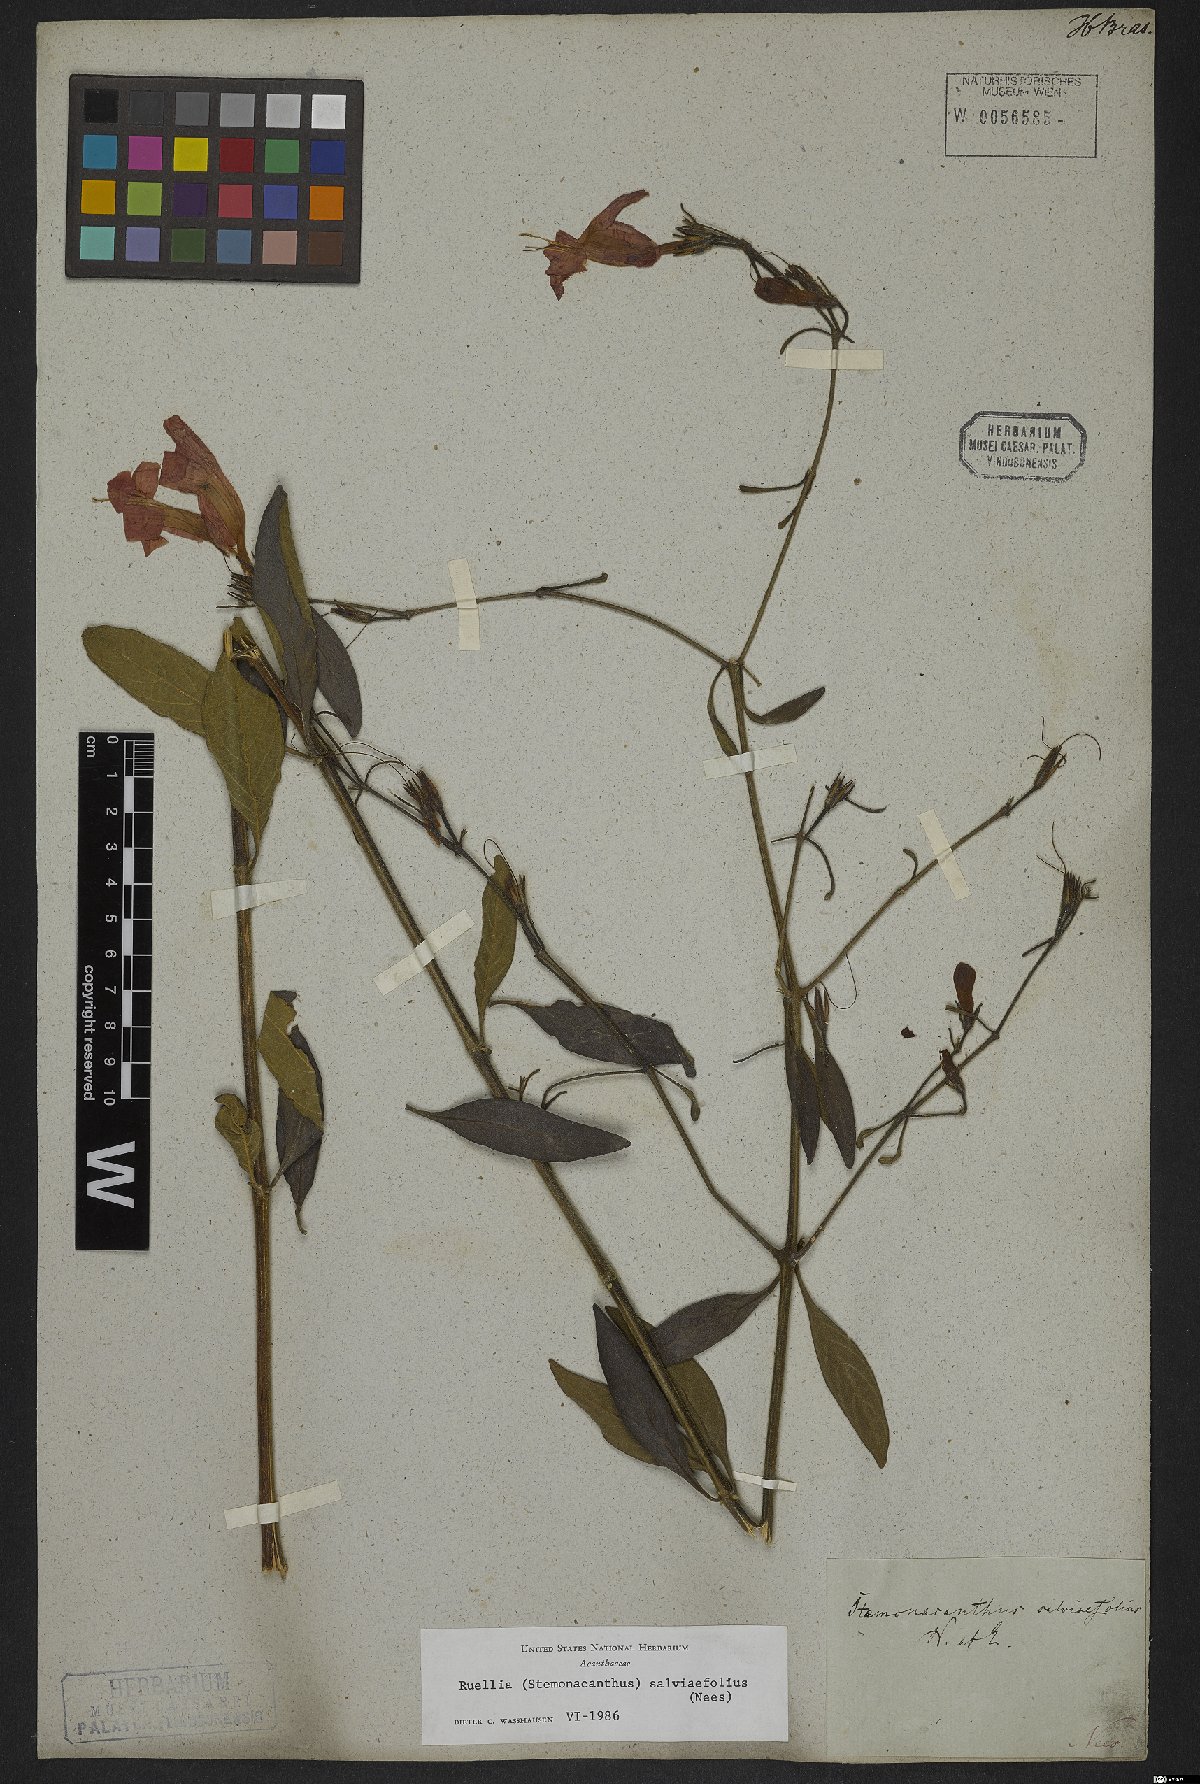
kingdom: Plantae
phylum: Tracheophyta
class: Magnoliopsida
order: Lamiales
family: Acanthaceae
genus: Ruellia
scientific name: Ruellia salviifolia
